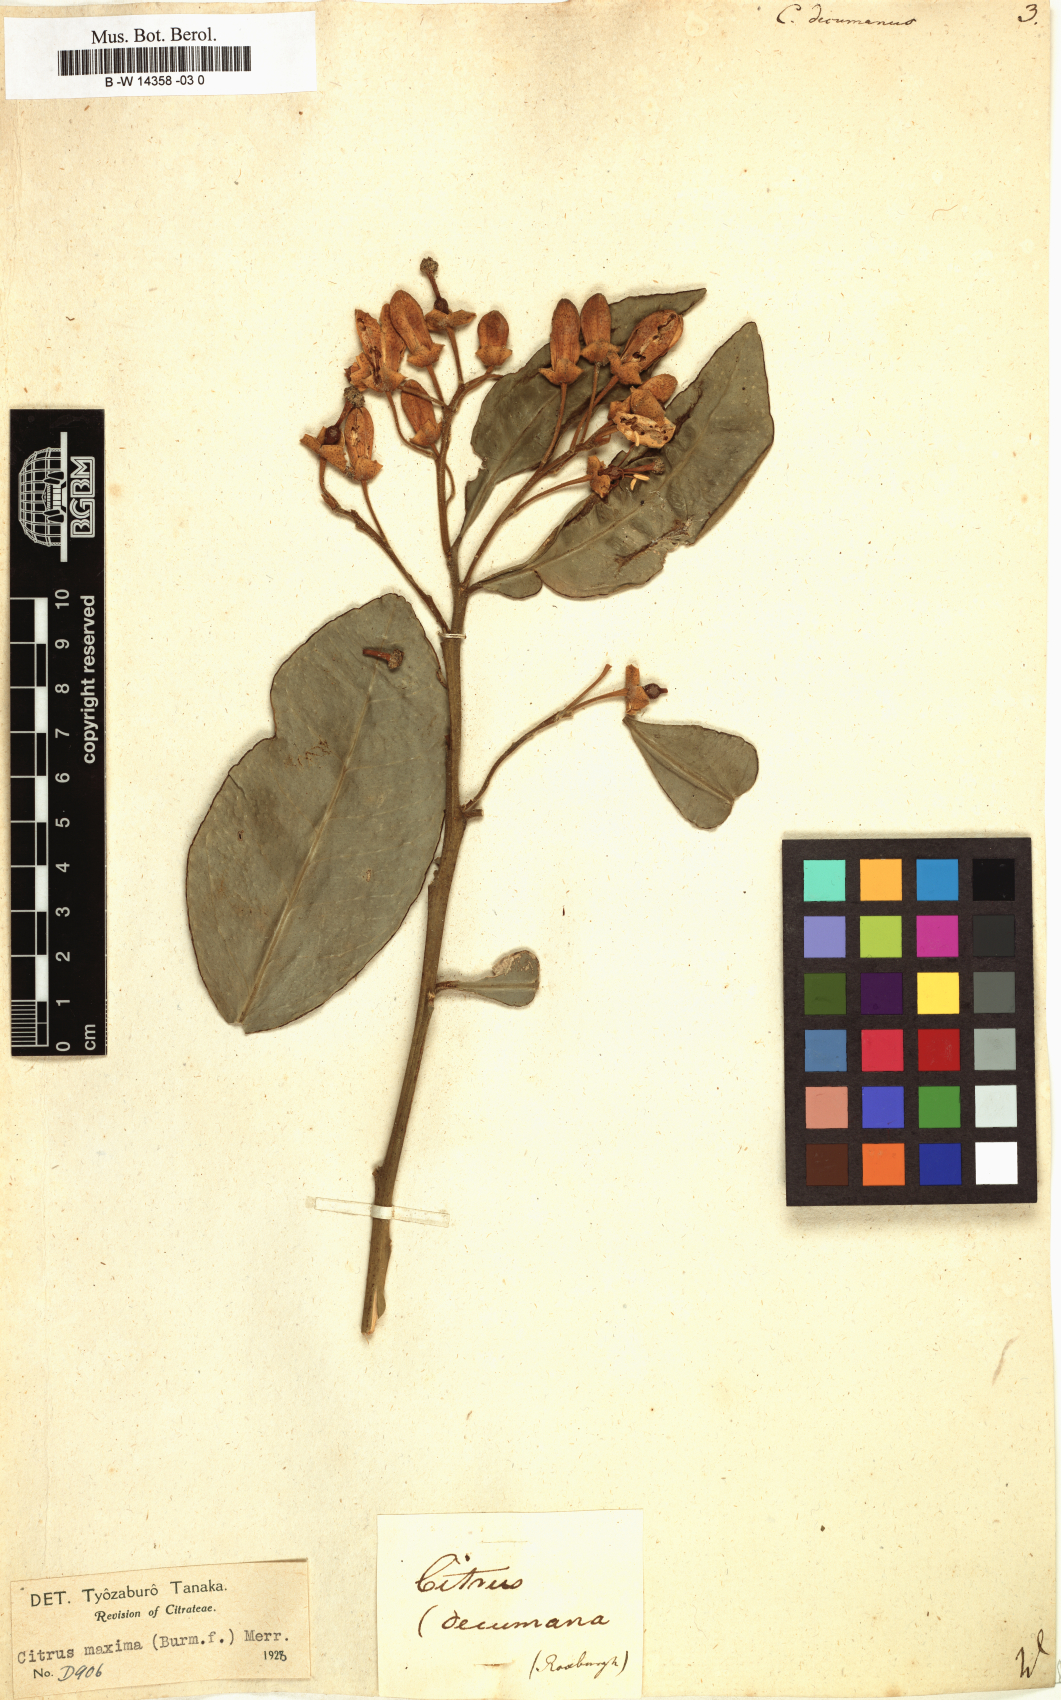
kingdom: Plantae
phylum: Tracheophyta
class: Magnoliopsida
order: Sapindales
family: Rutaceae
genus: Citrus
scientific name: Citrus maxima
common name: Pomelo
